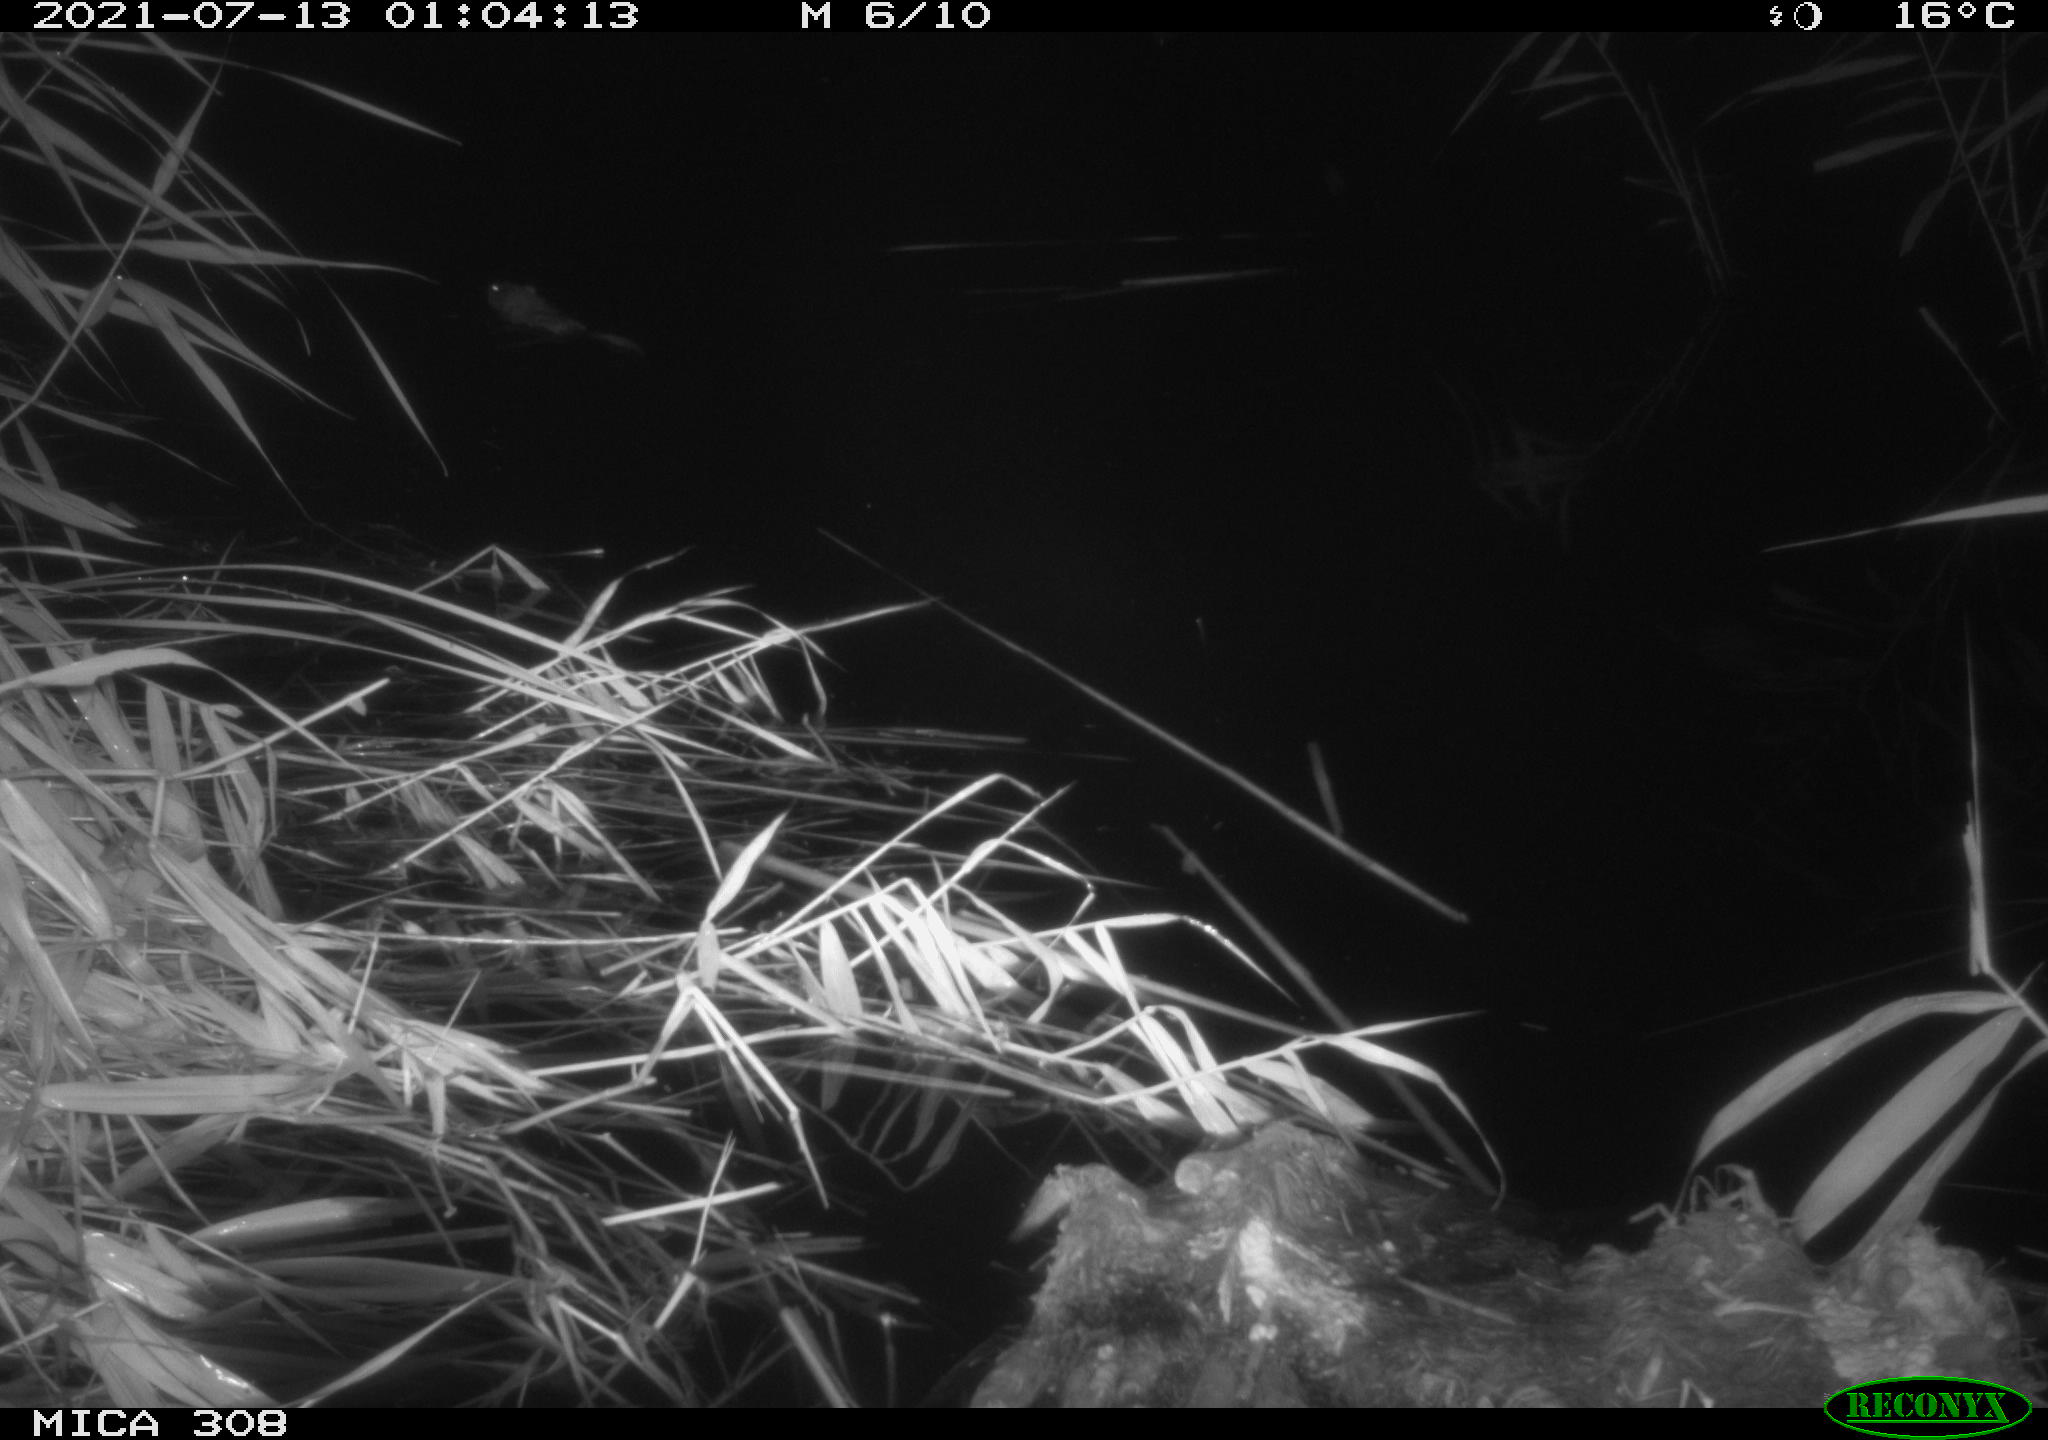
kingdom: Animalia
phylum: Chordata
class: Mammalia
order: Rodentia
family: Cricetidae
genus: Ondatra
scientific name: Ondatra zibethicus
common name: Muskrat
